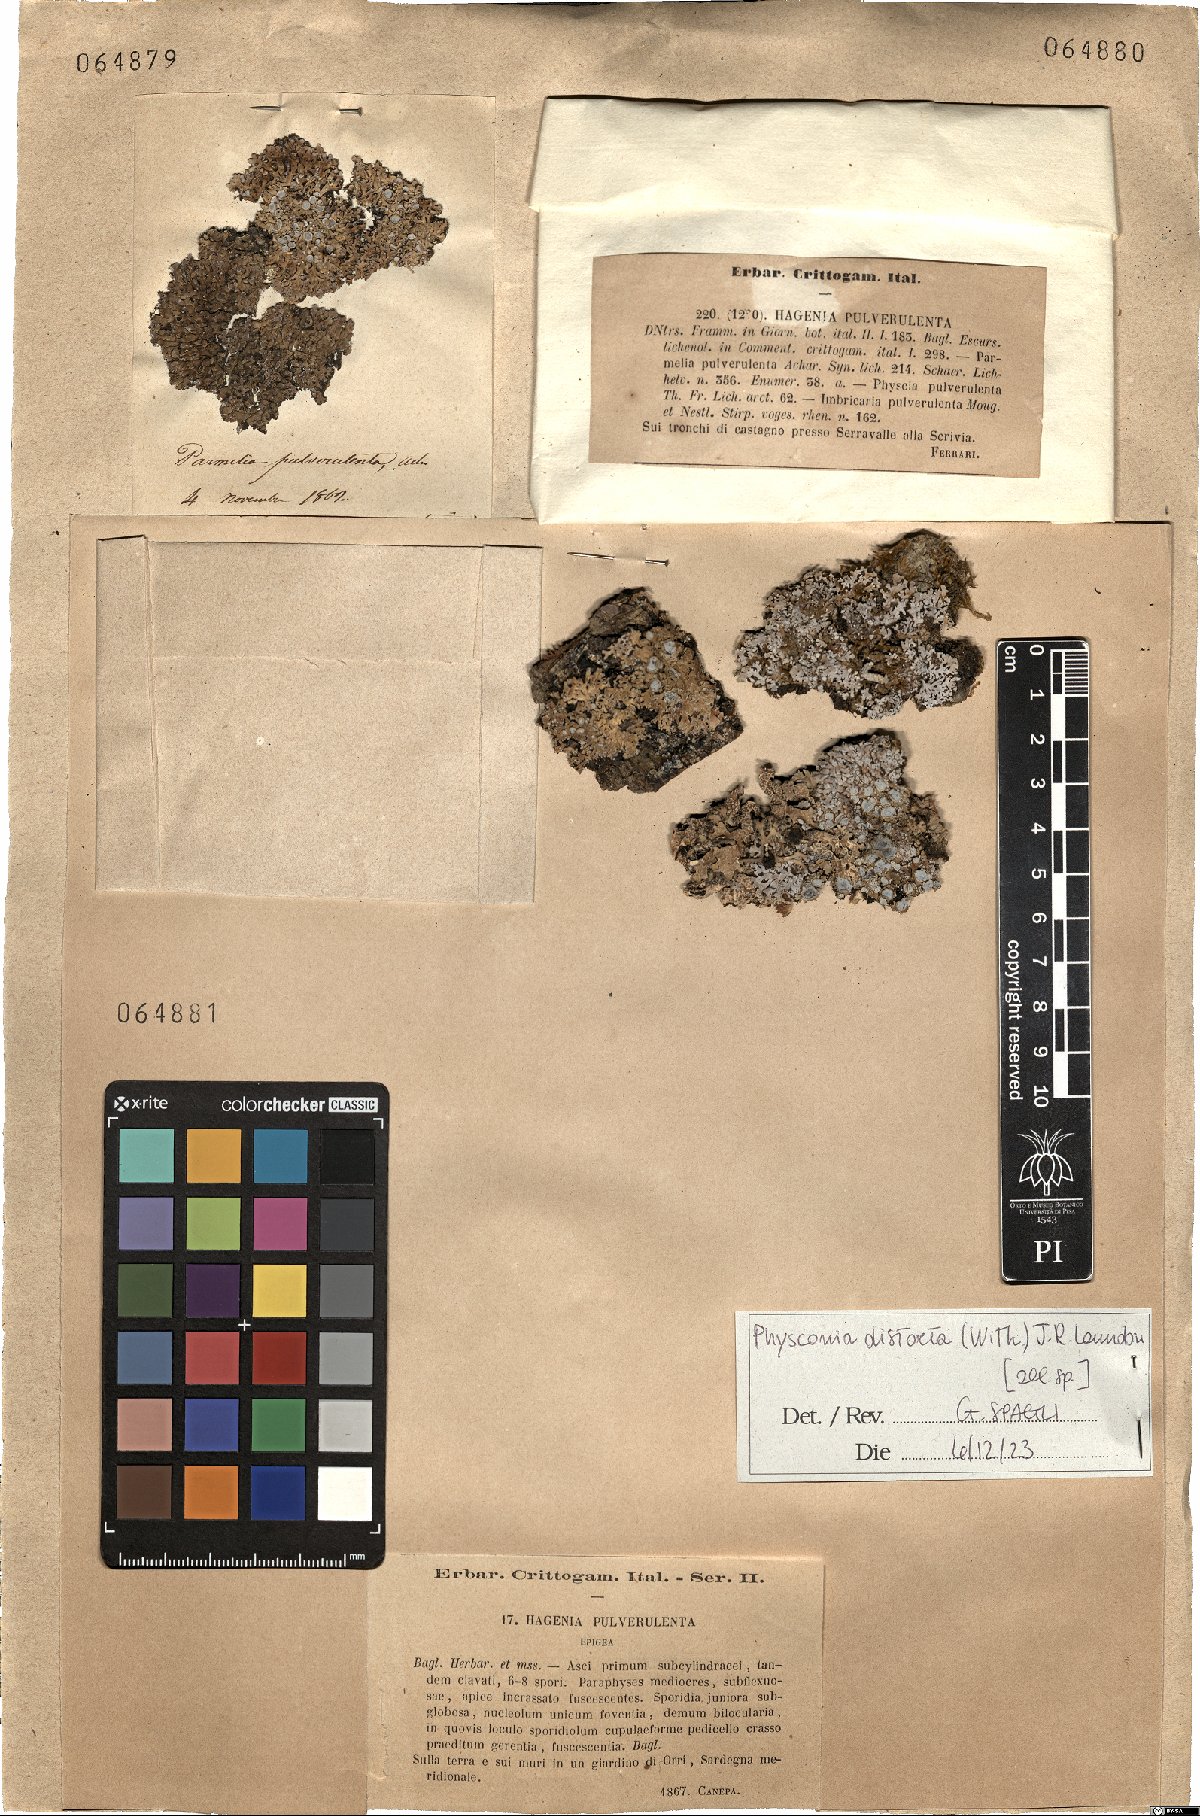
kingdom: Fungi
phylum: Ascomycota
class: Lecanoromycetes
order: Caliciales
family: Physciaceae
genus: Physconia
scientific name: Physconia distorta
